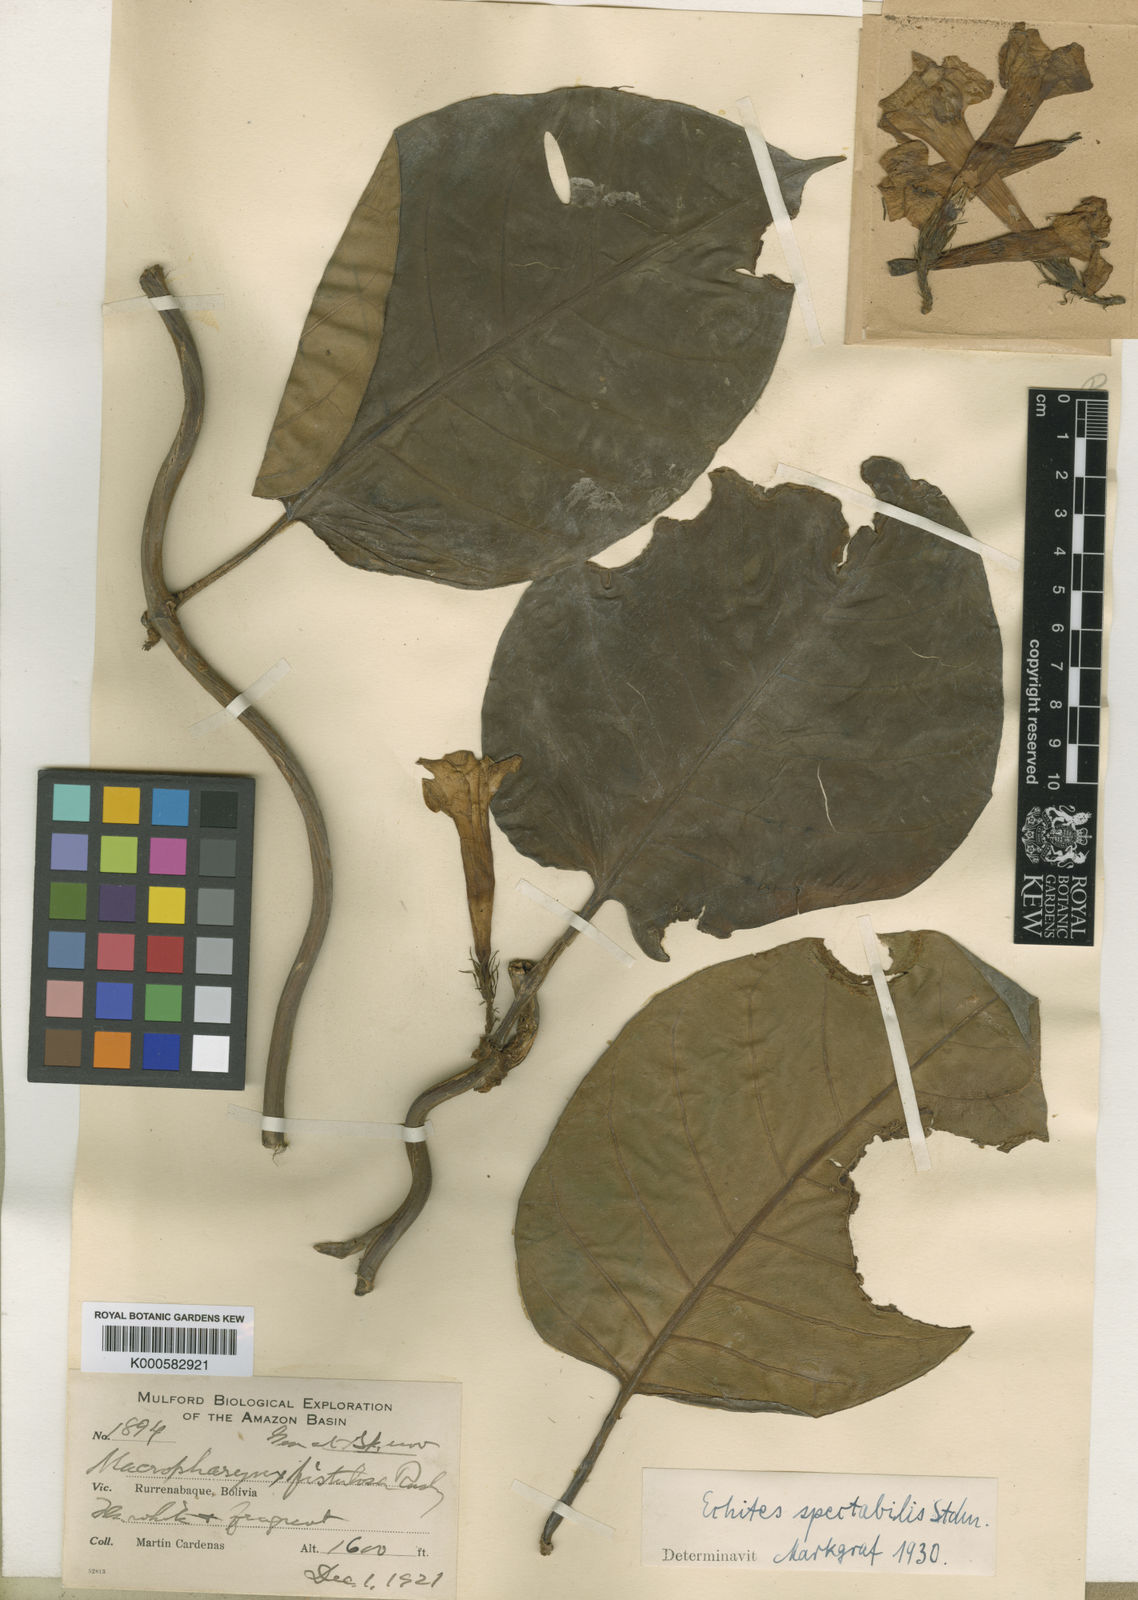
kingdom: Plantae
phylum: Tracheophyta
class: Magnoliopsida
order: Gentianales
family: Apocynaceae
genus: Macropharynx
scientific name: Macropharynx spectabilis
